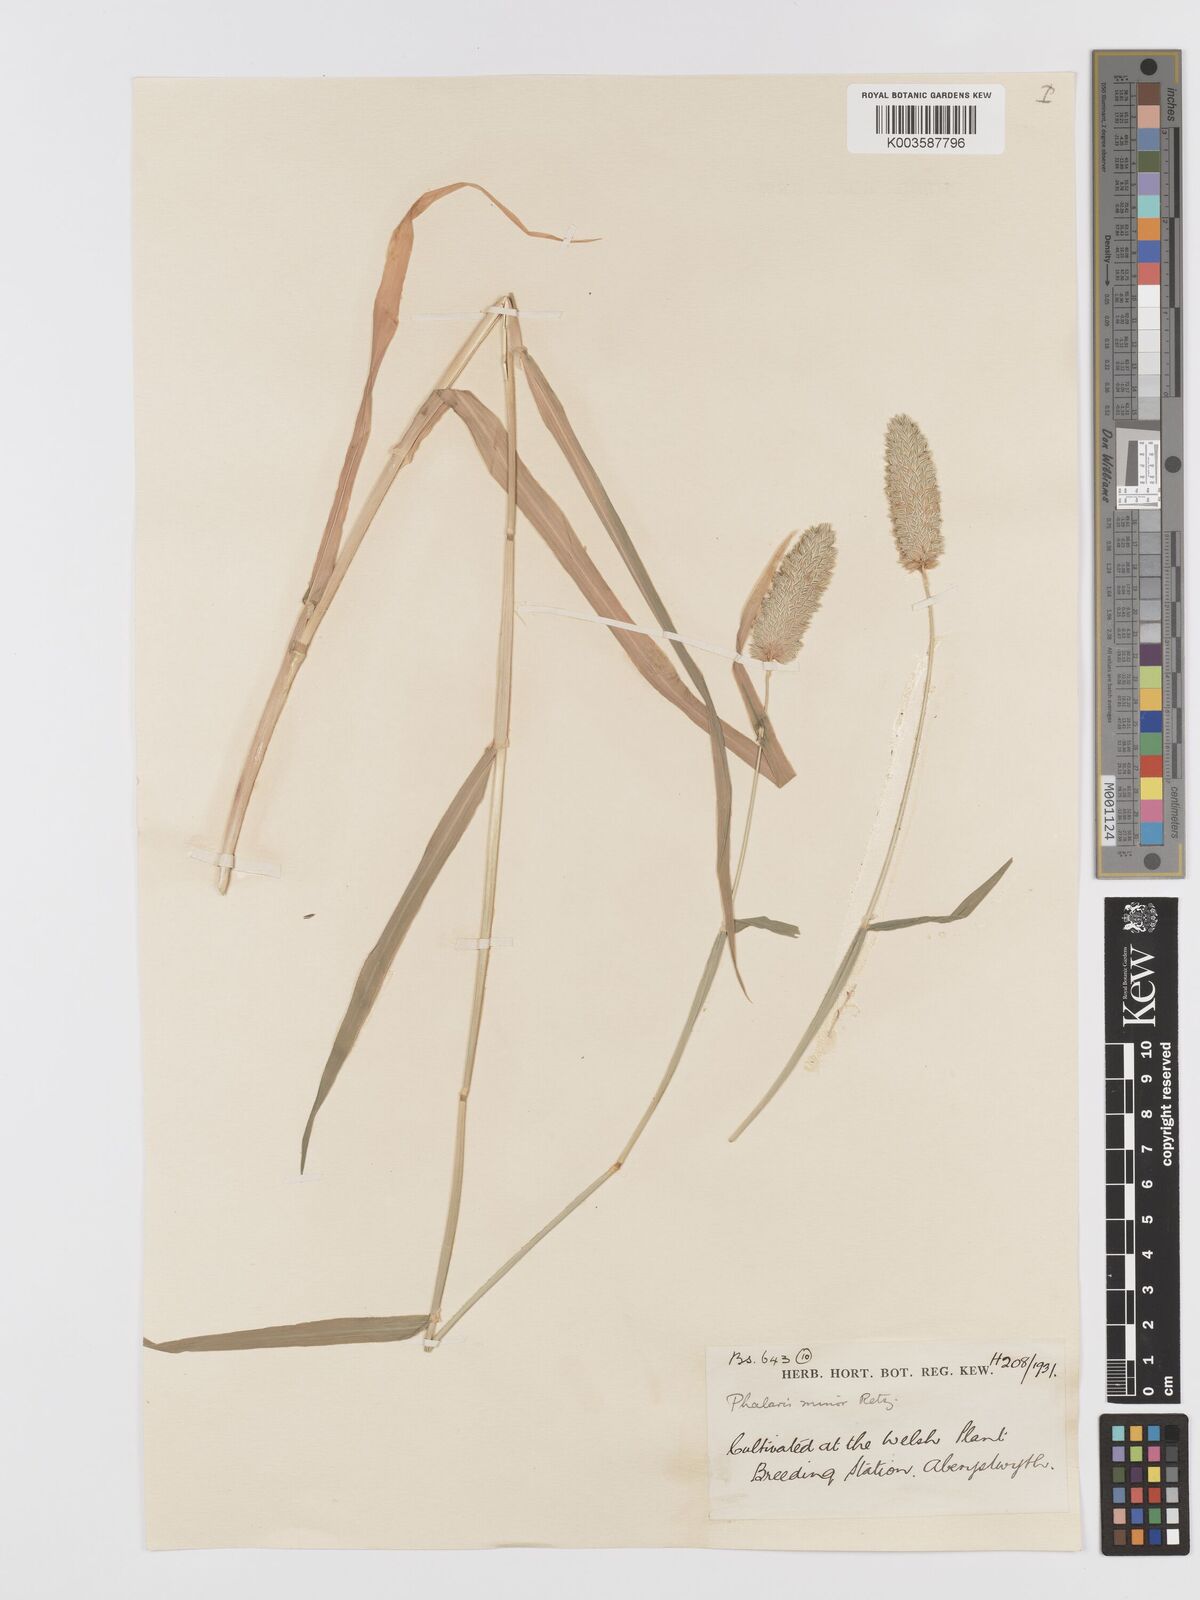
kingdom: Plantae
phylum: Tracheophyta
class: Liliopsida
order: Poales
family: Poaceae
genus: Phalaris
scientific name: Phalaris minor
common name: Littleseed canarygrass
